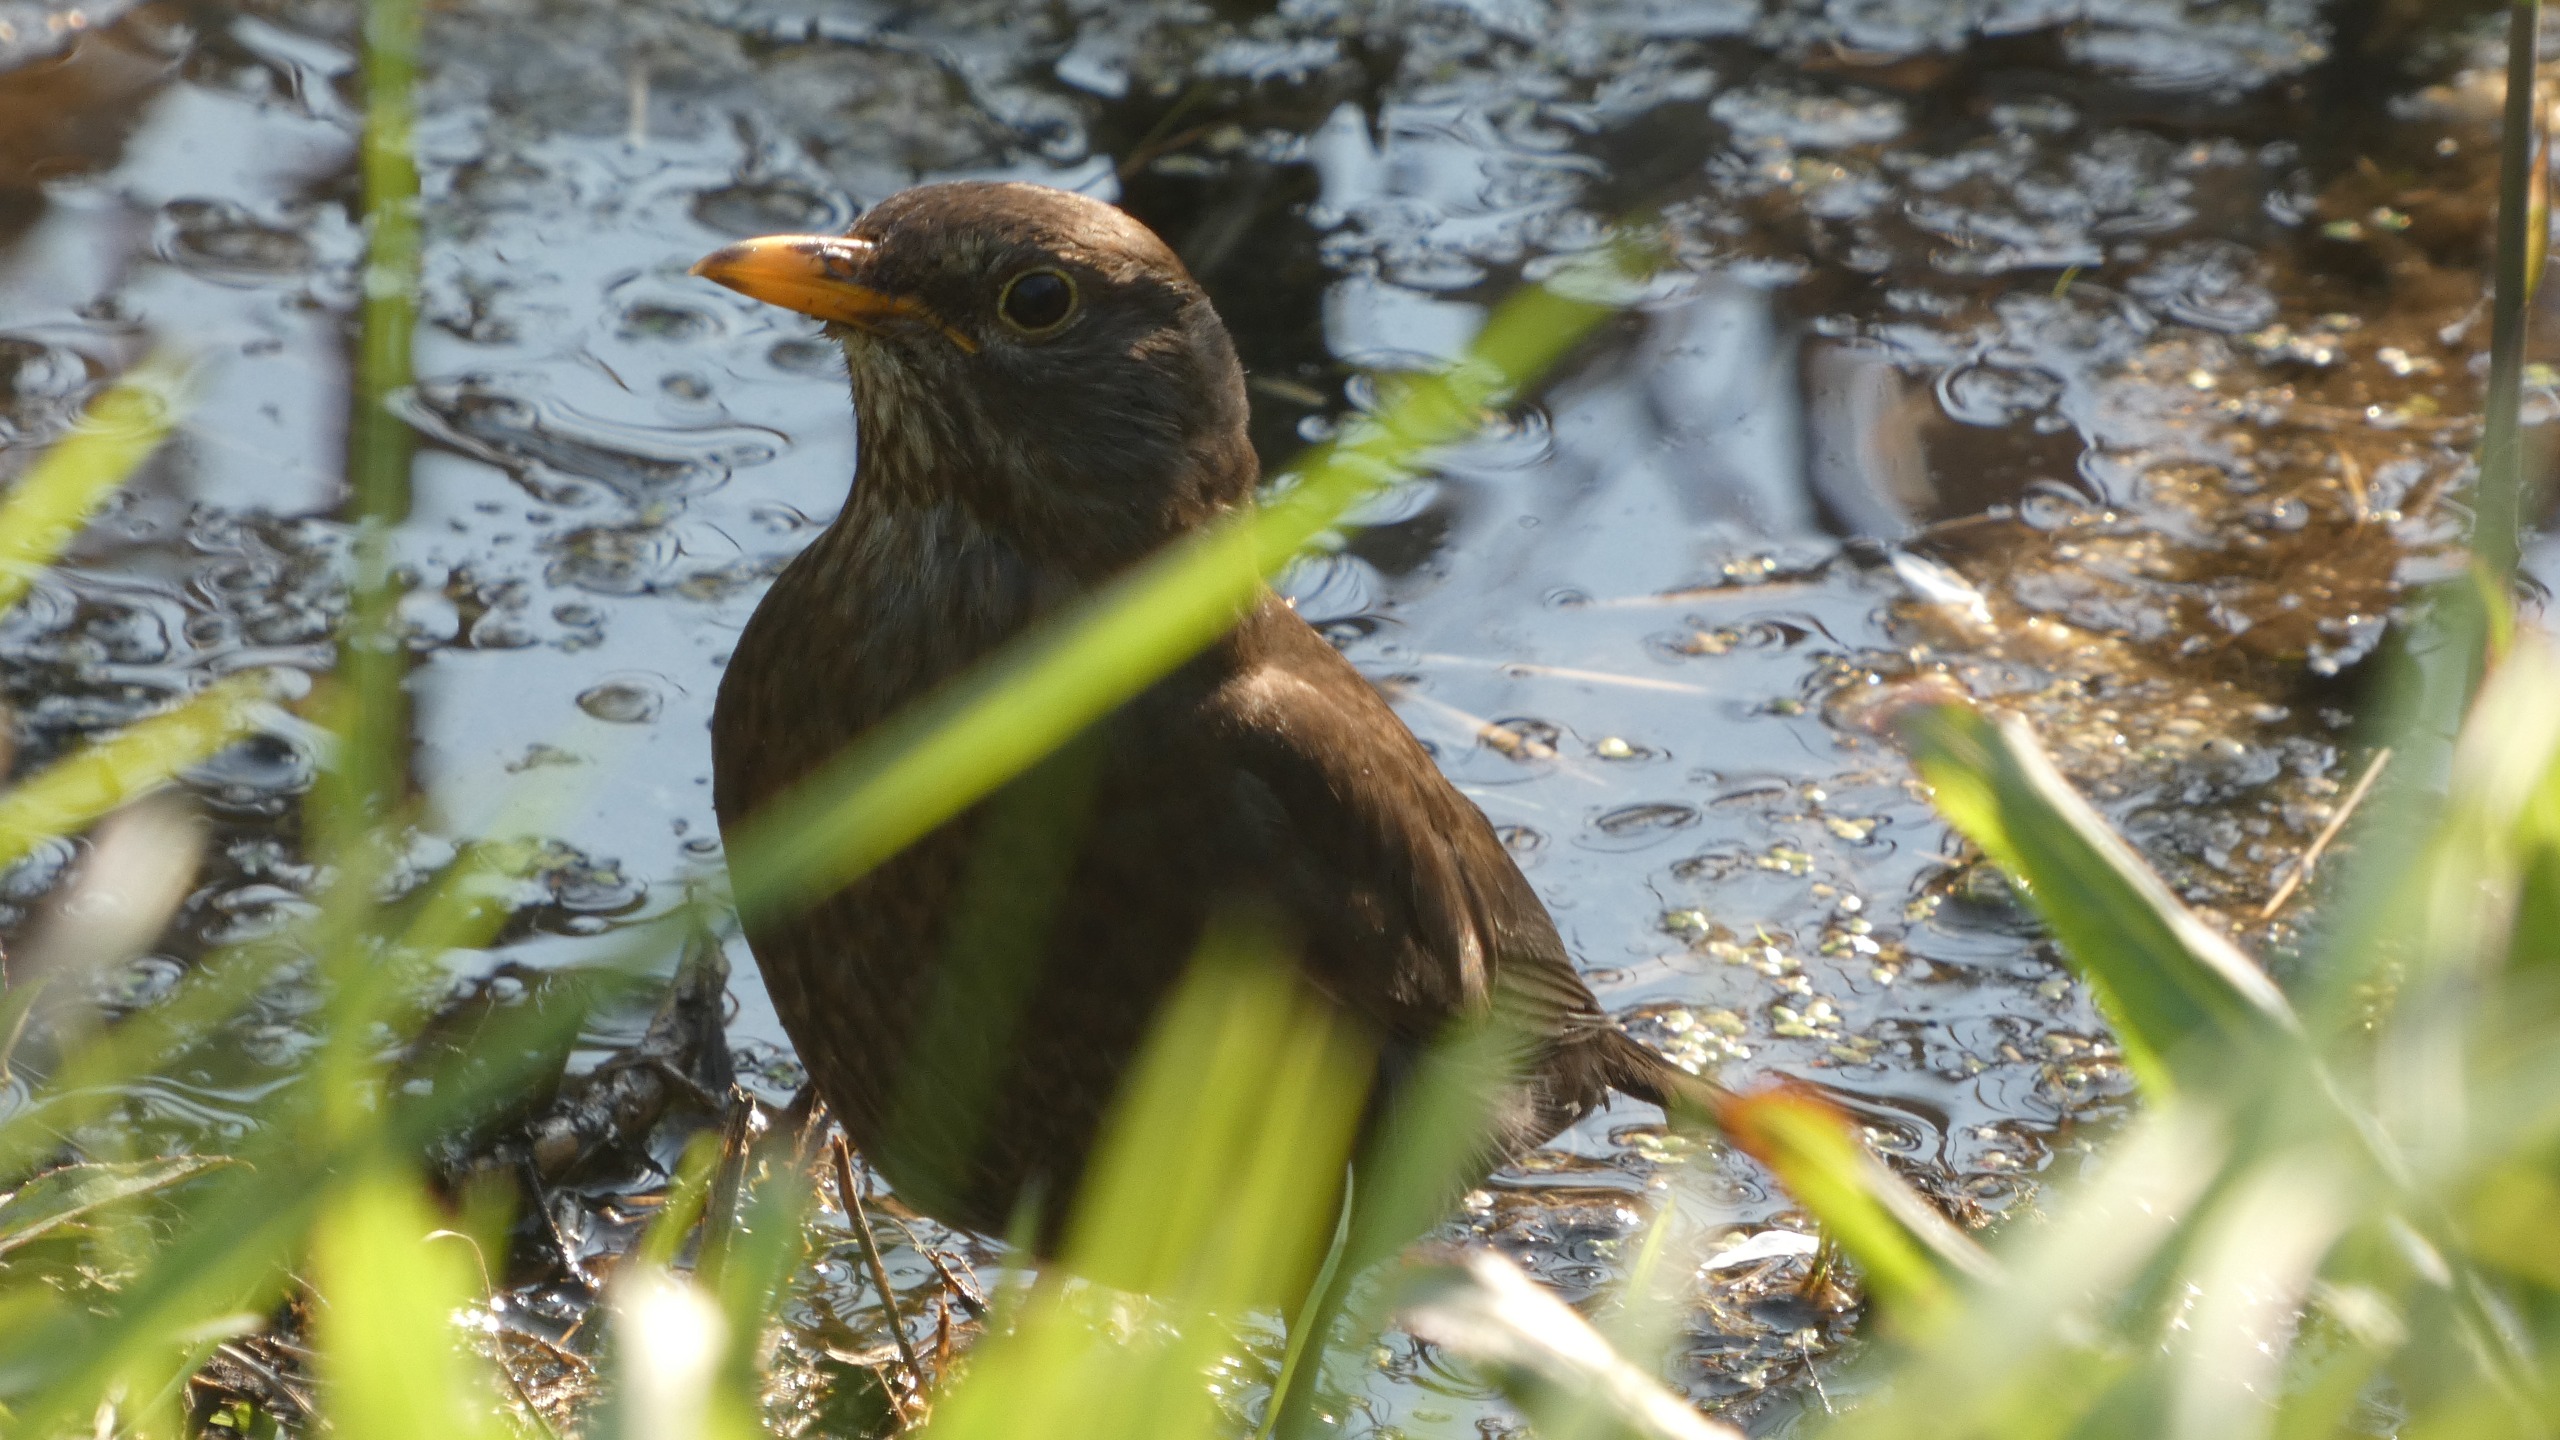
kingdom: Animalia
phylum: Chordata
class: Aves
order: Passeriformes
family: Turdidae
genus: Turdus
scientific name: Turdus merula
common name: Solsort
